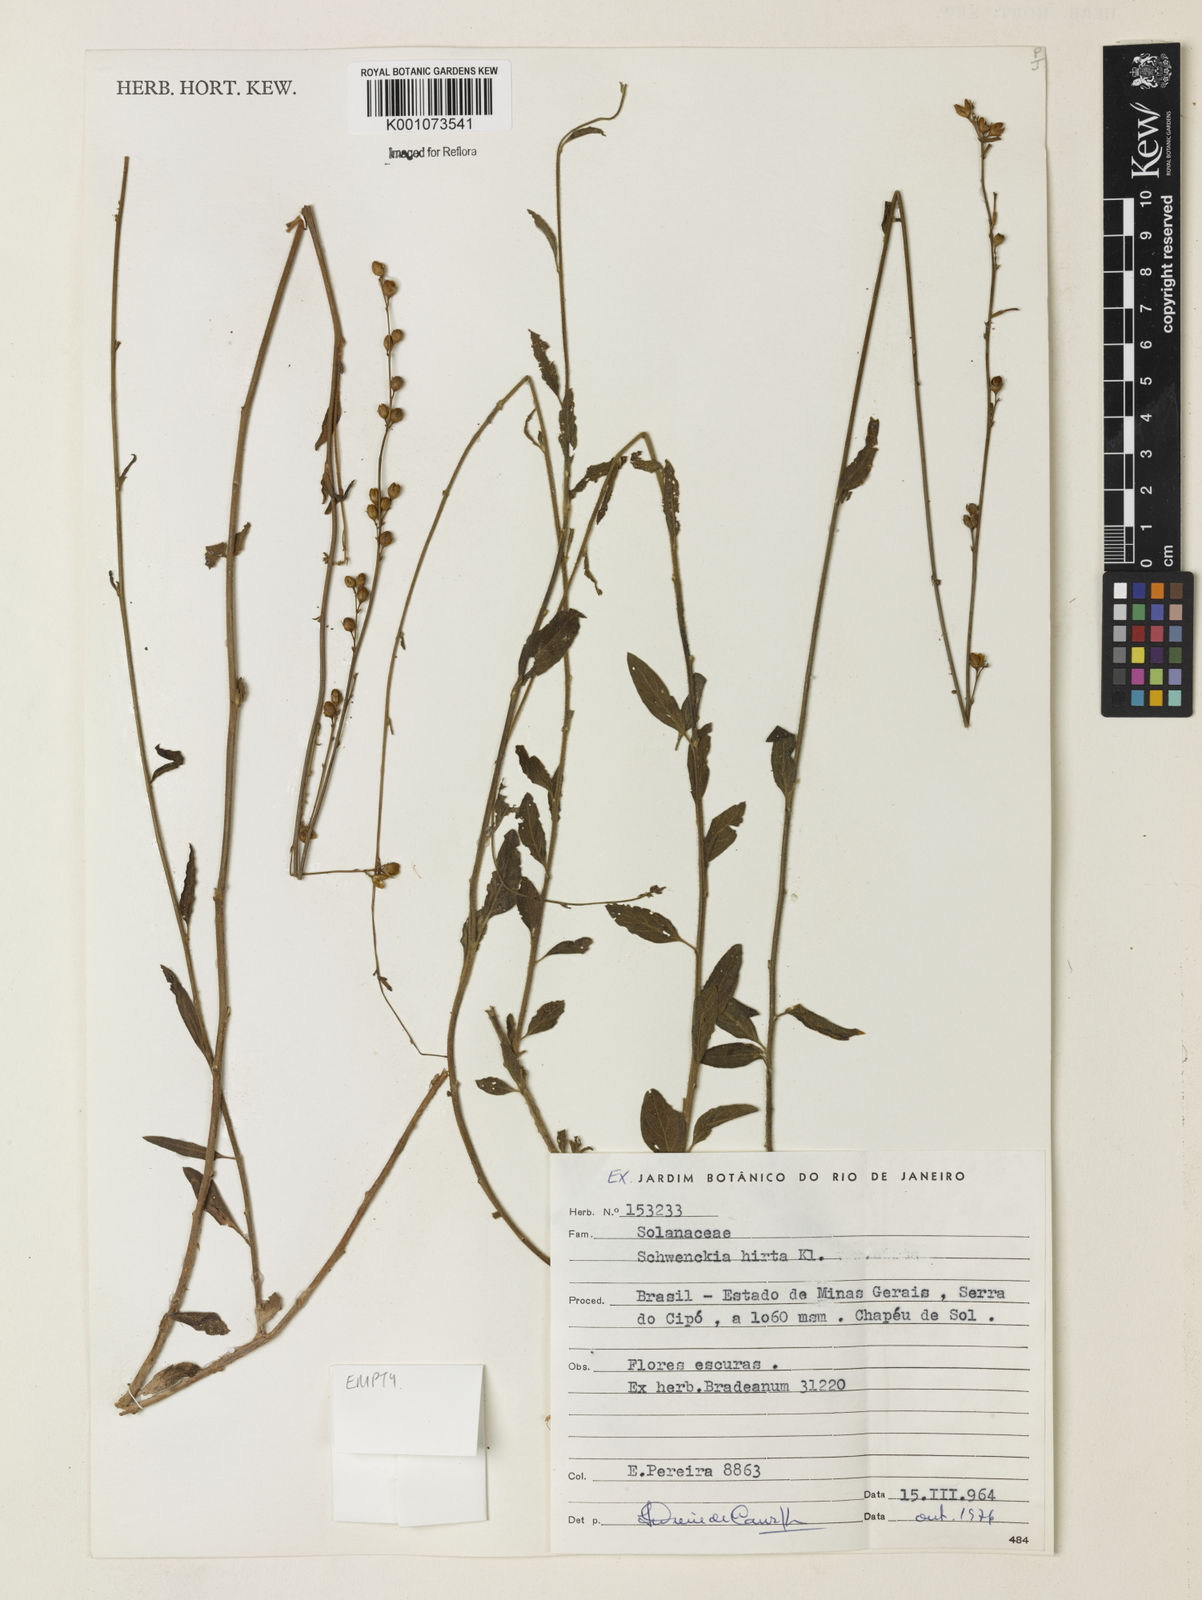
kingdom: Plantae
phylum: Tracheophyta
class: Magnoliopsida
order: Solanales
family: Solanaceae
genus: Schwenckia
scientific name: Schwenckia americana
